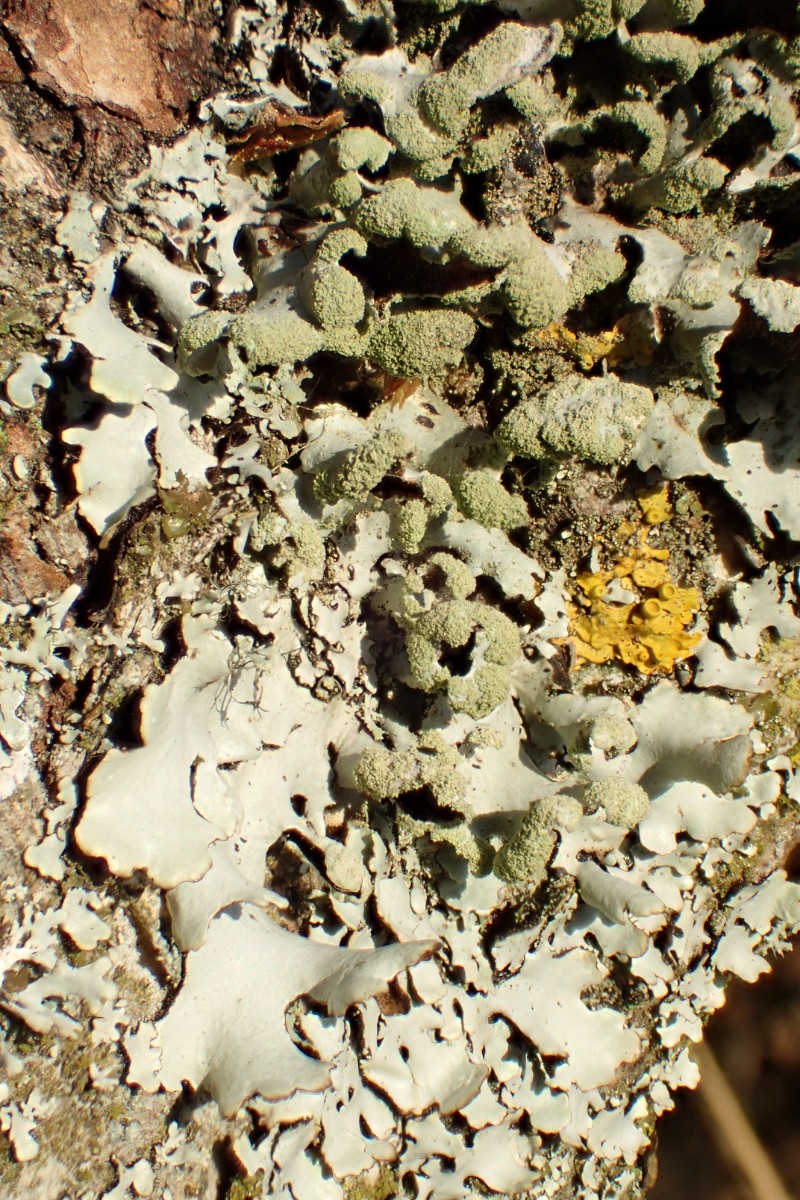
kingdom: Fungi
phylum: Ascomycota
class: Lecanoromycetes
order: Lecanorales
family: Parmeliaceae
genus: Hypotrachyna
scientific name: Hypotrachyna revoluta
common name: bleggrå skållav
